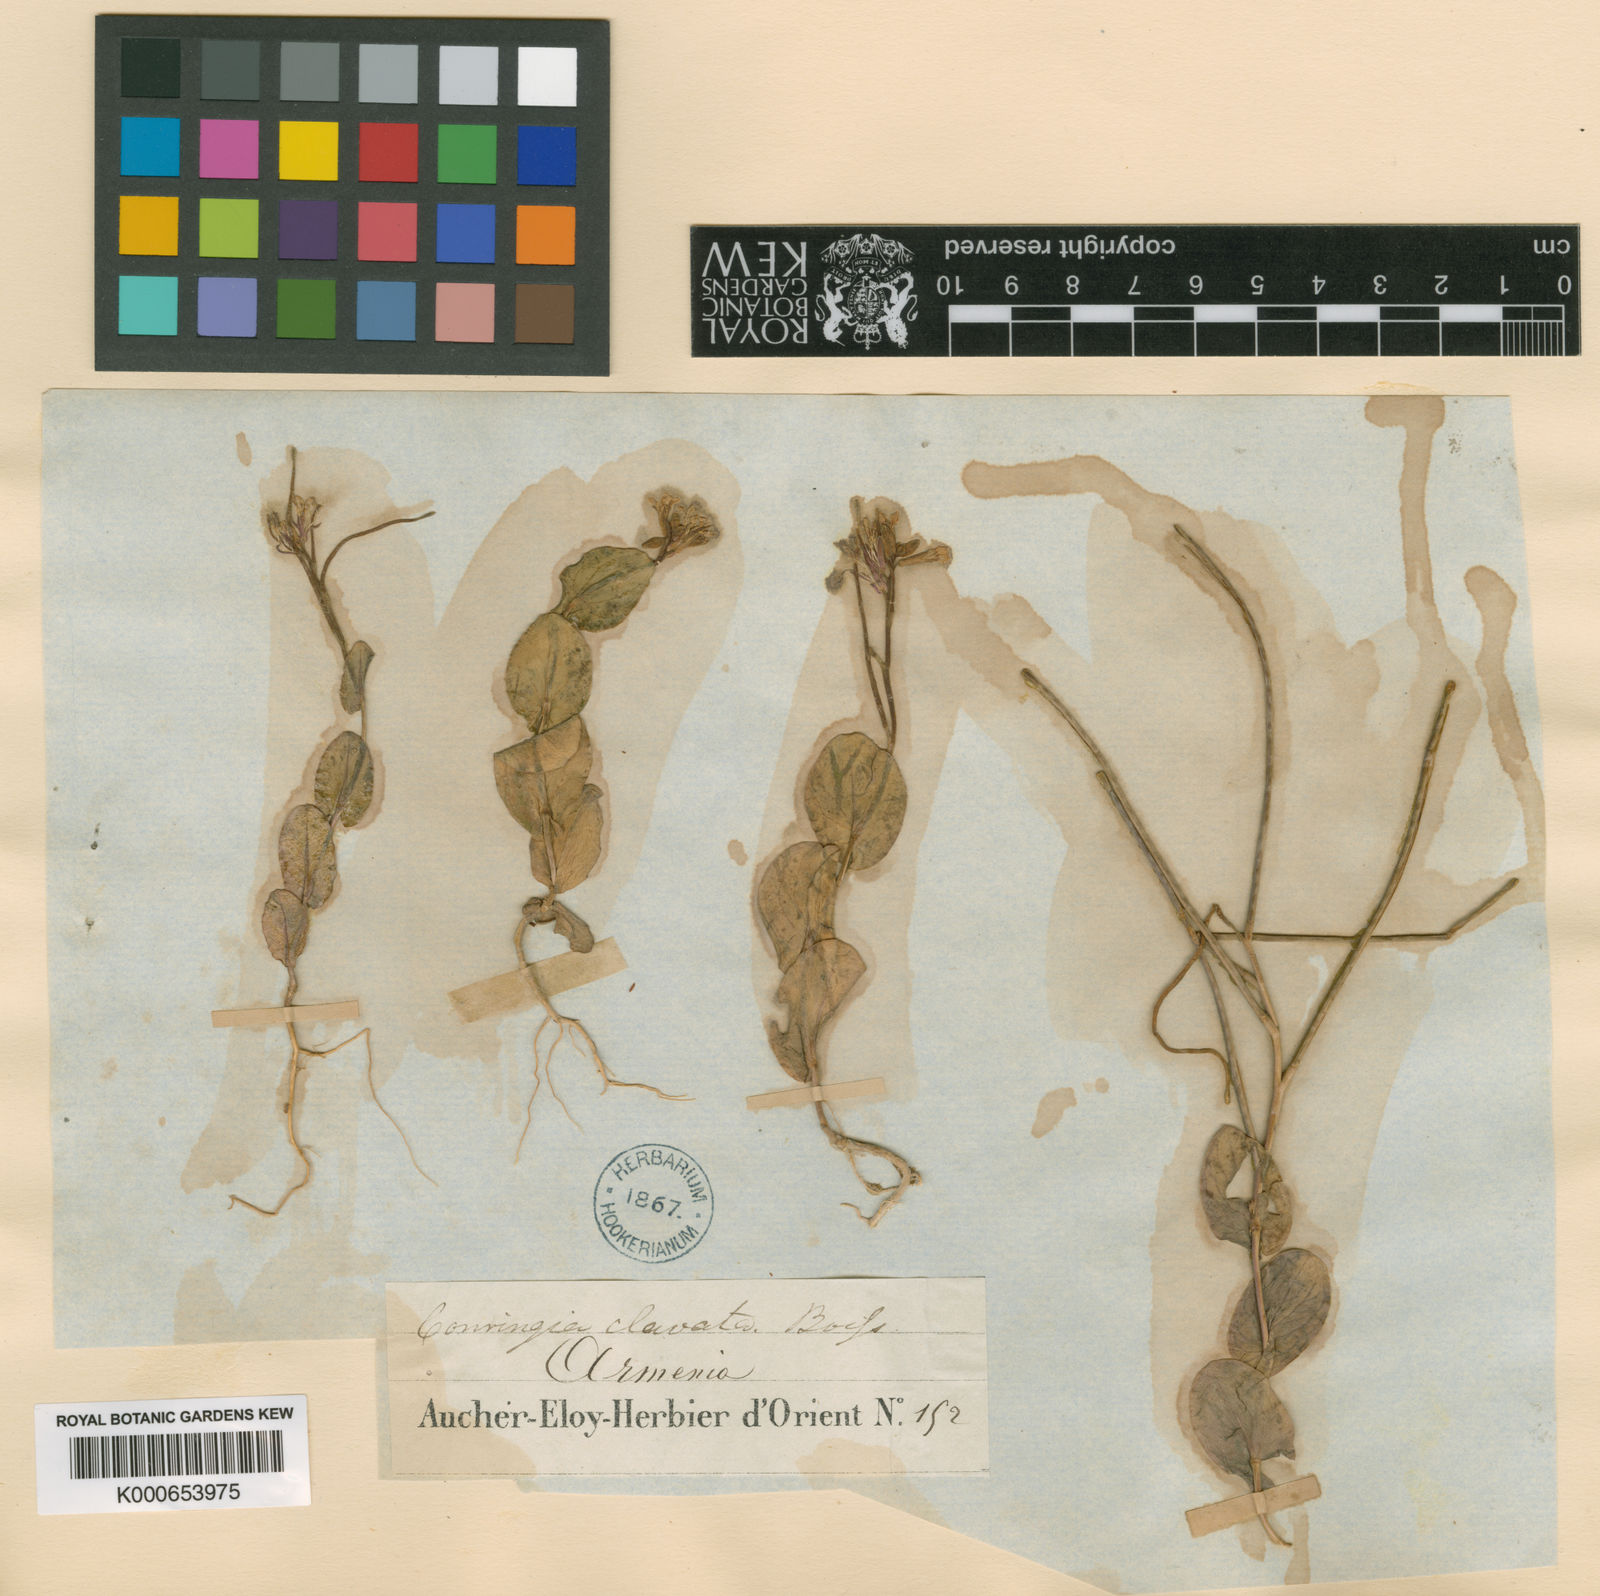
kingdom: Plantae
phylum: Tracheophyta
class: Magnoliopsida
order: Brassicales
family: Brassicaceae
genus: Conringia
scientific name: Conringia clavata
